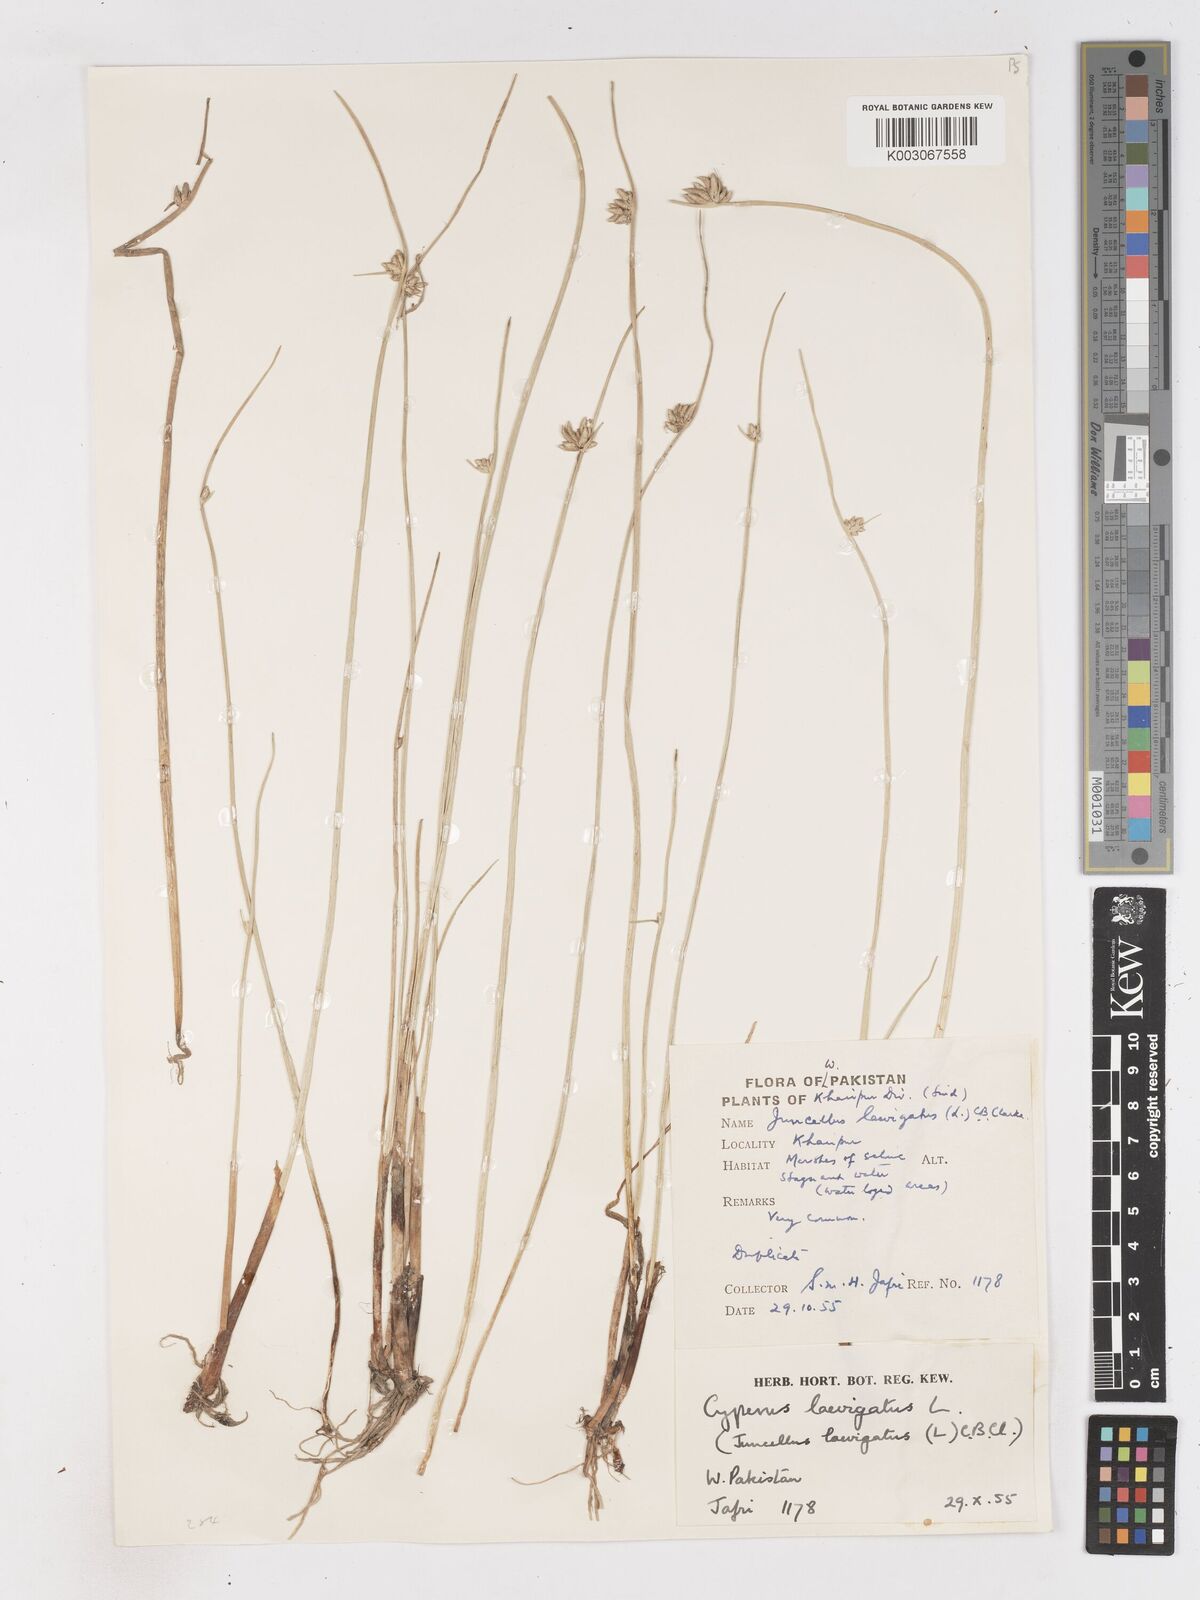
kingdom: Plantae
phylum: Tracheophyta
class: Liliopsida
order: Poales
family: Cyperaceae
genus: Cyperus
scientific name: Cyperus laevigatus
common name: Smooth flat sedge
